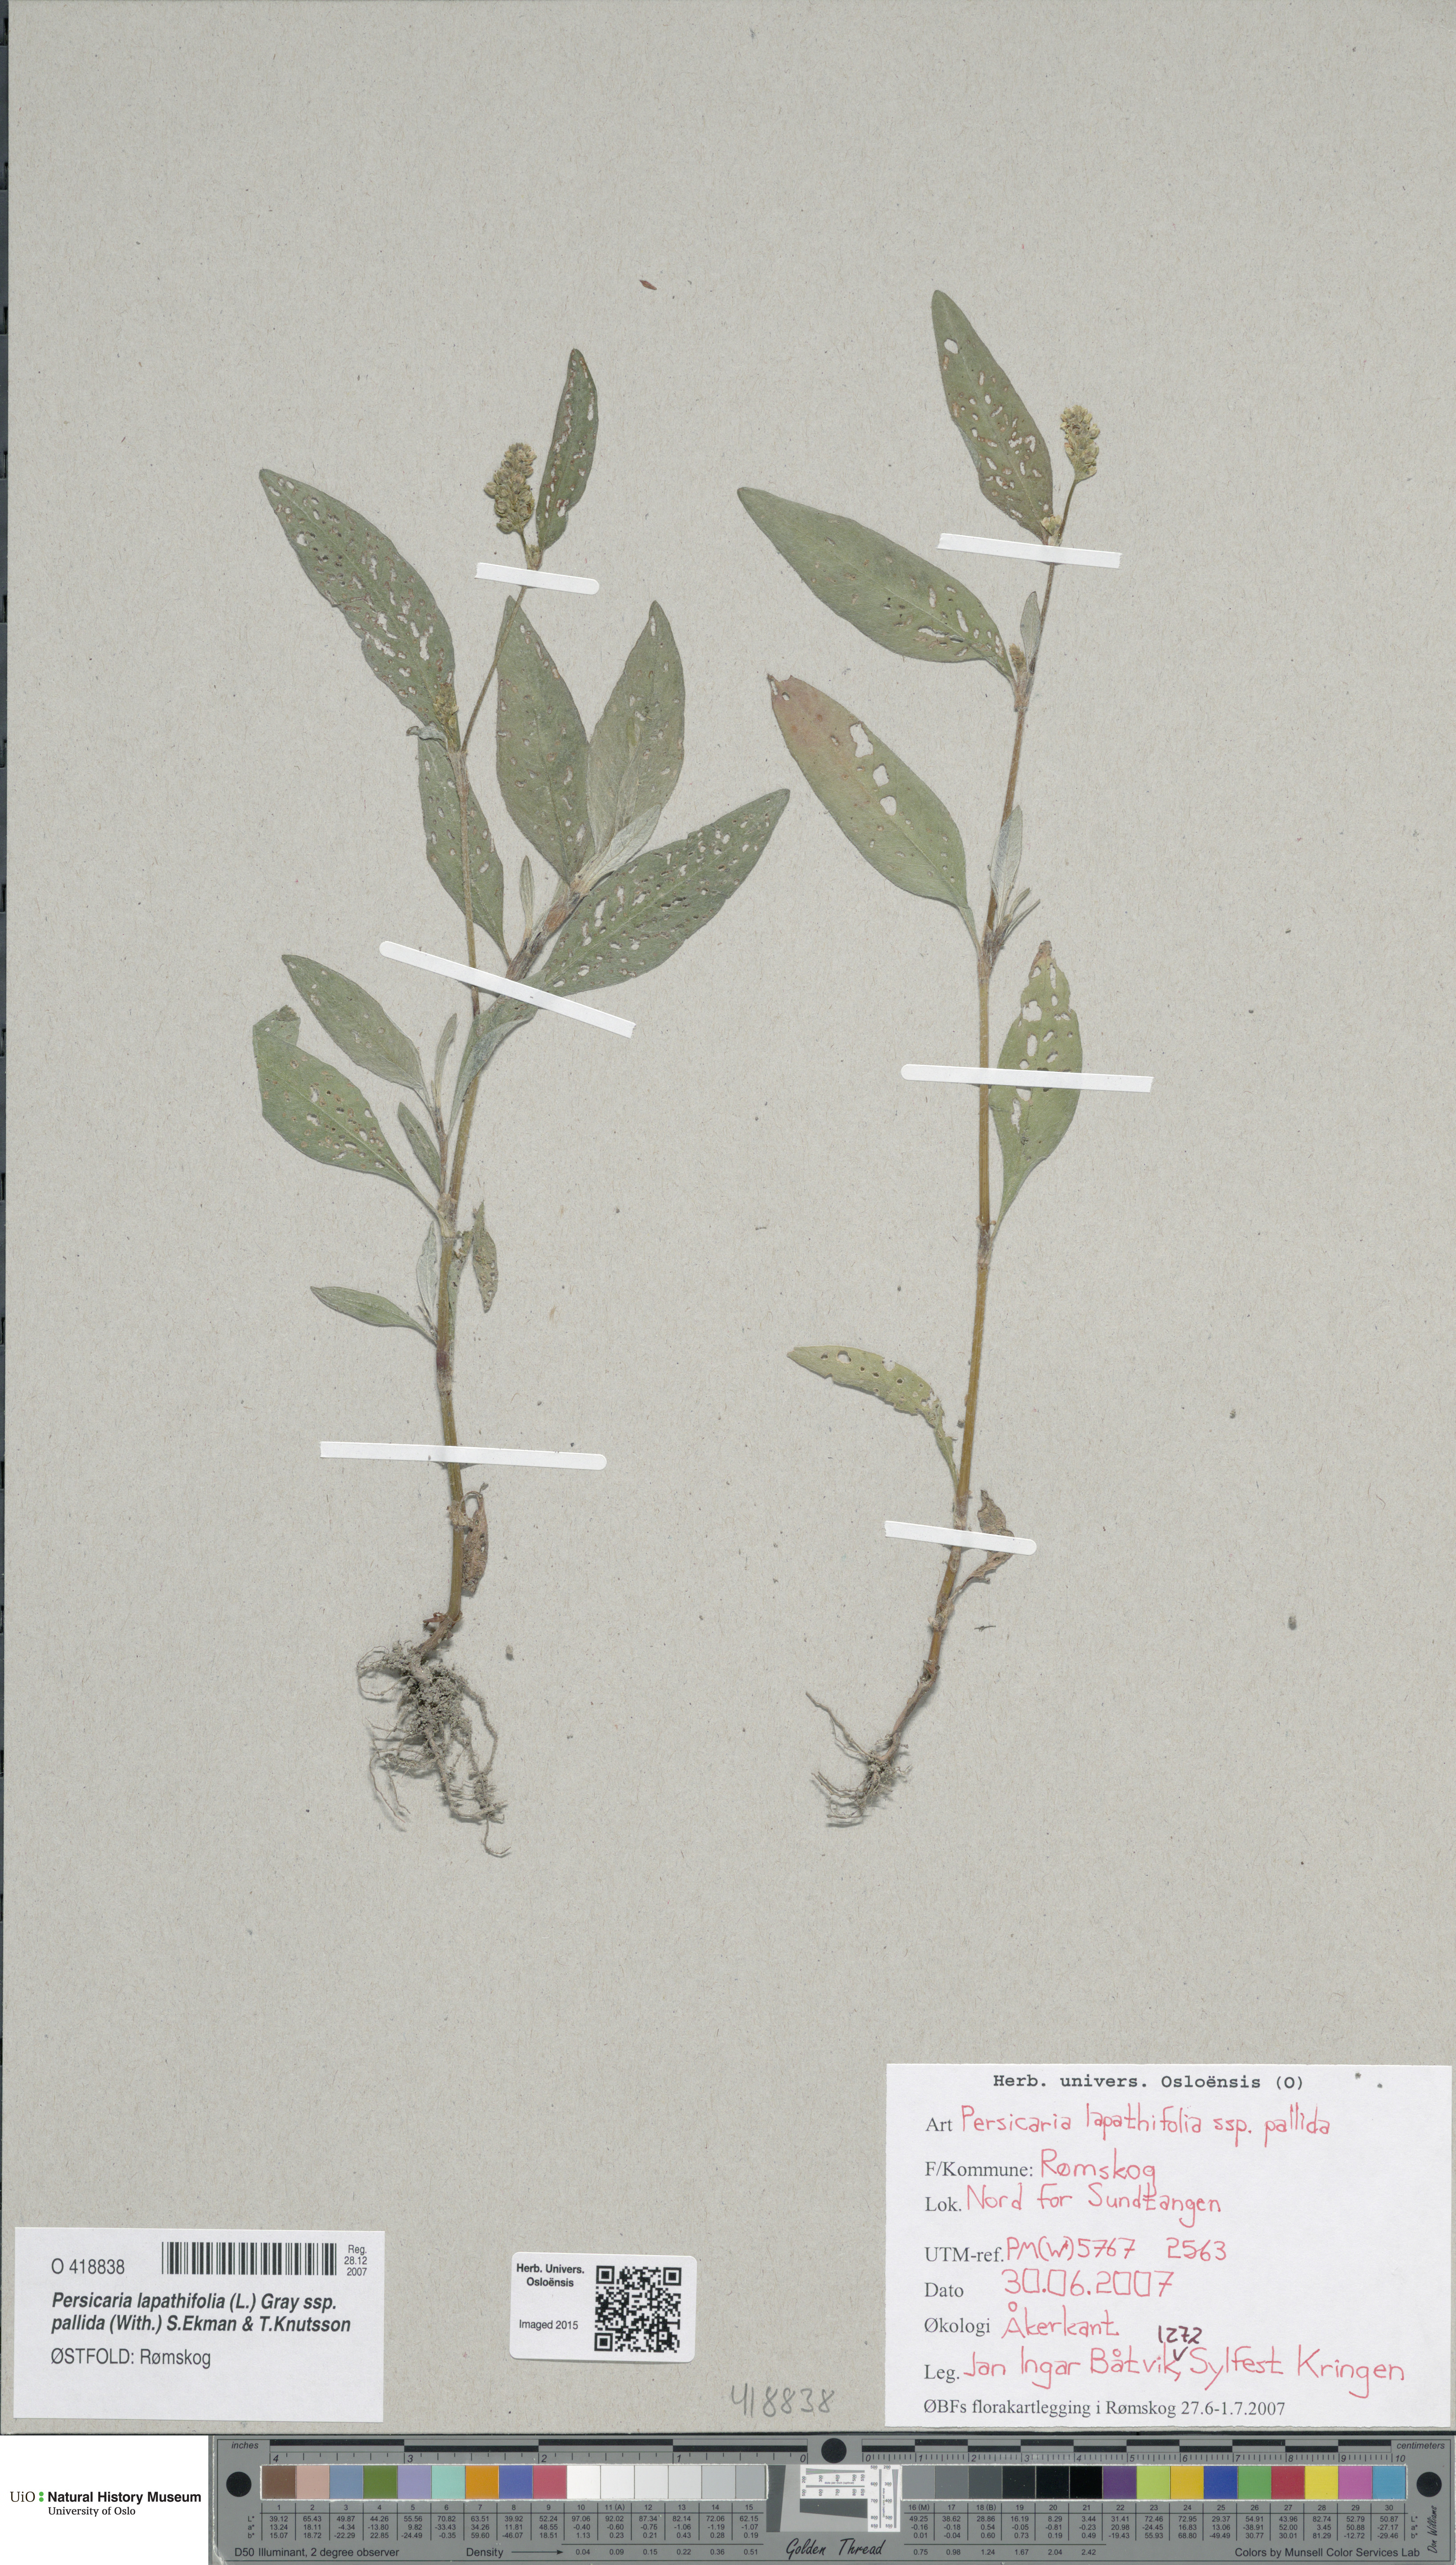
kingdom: Plantae
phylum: Tracheophyta
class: Magnoliopsida
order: Caryophyllales
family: Polygonaceae
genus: Persicaria
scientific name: Persicaria lapathifolia
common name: Curlytop knotweed
